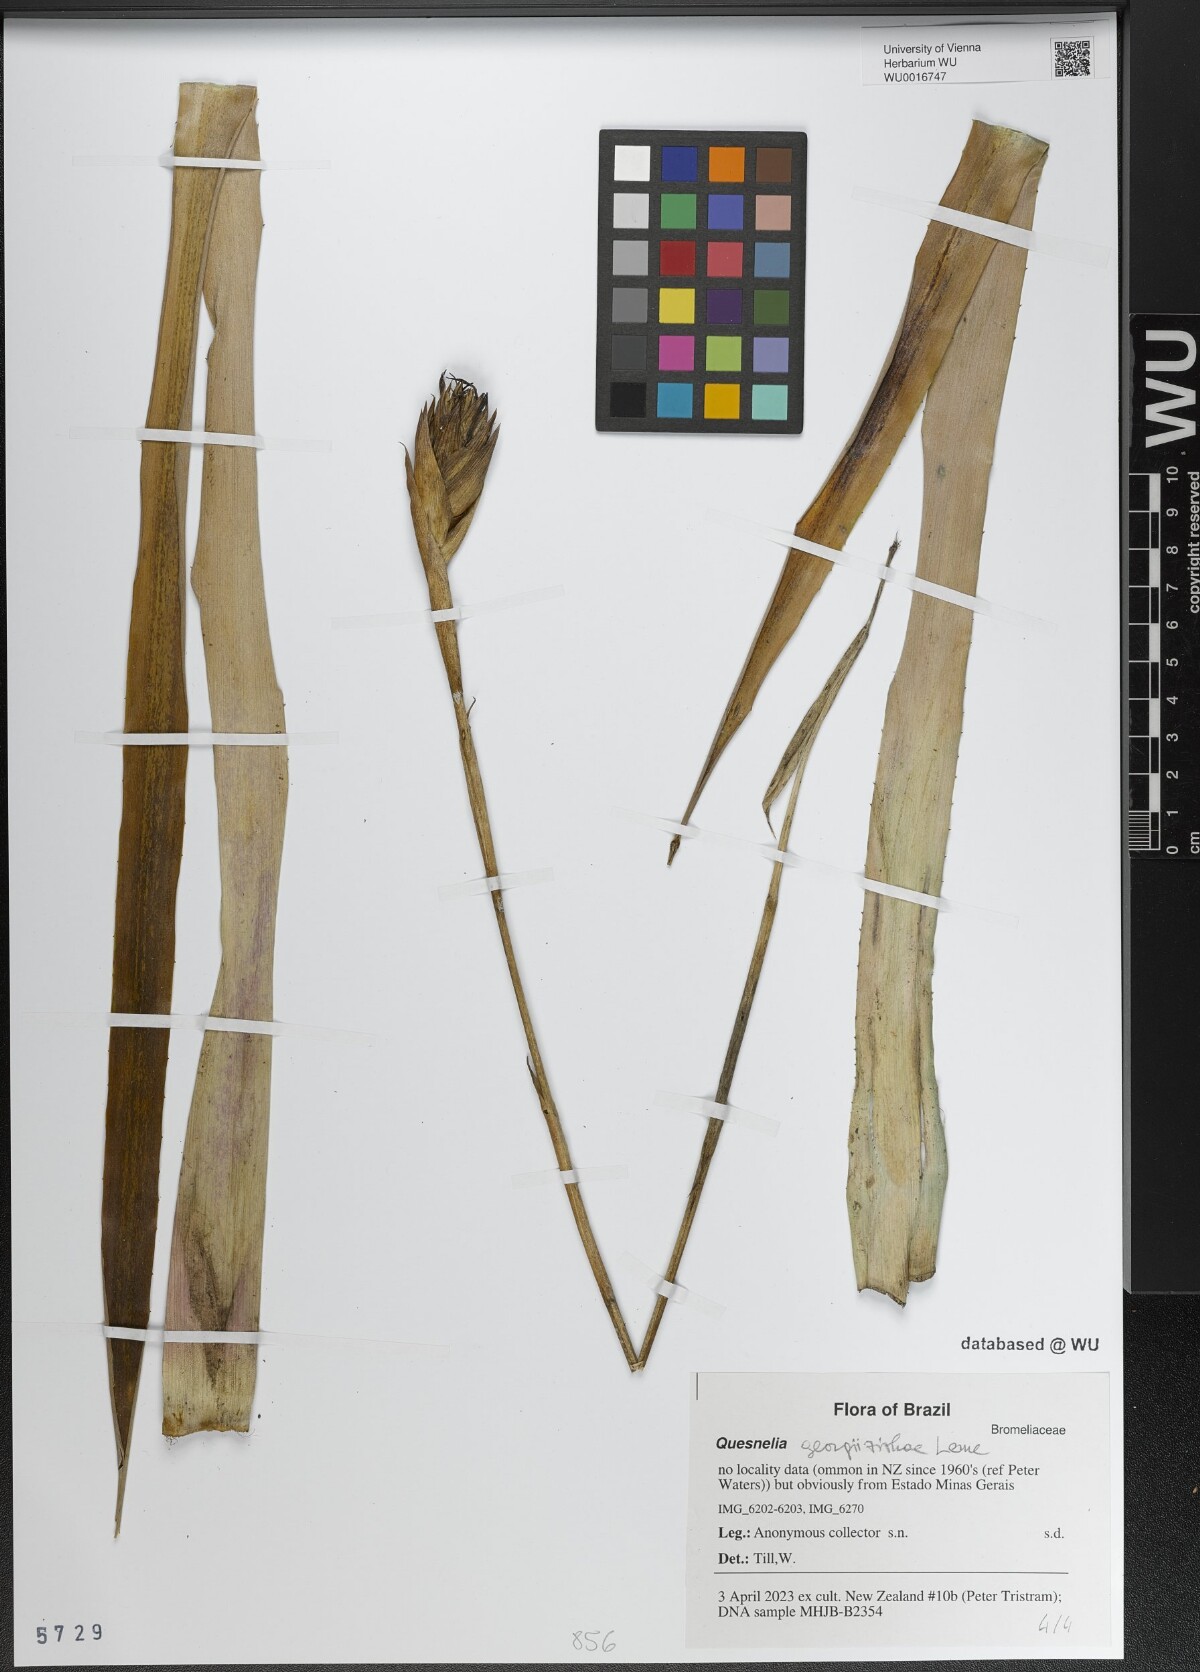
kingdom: Plantae
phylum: Tracheophyta
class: Liliopsida
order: Poales
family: Bromeliaceae
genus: Quesnelia
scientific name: Quesnelia
